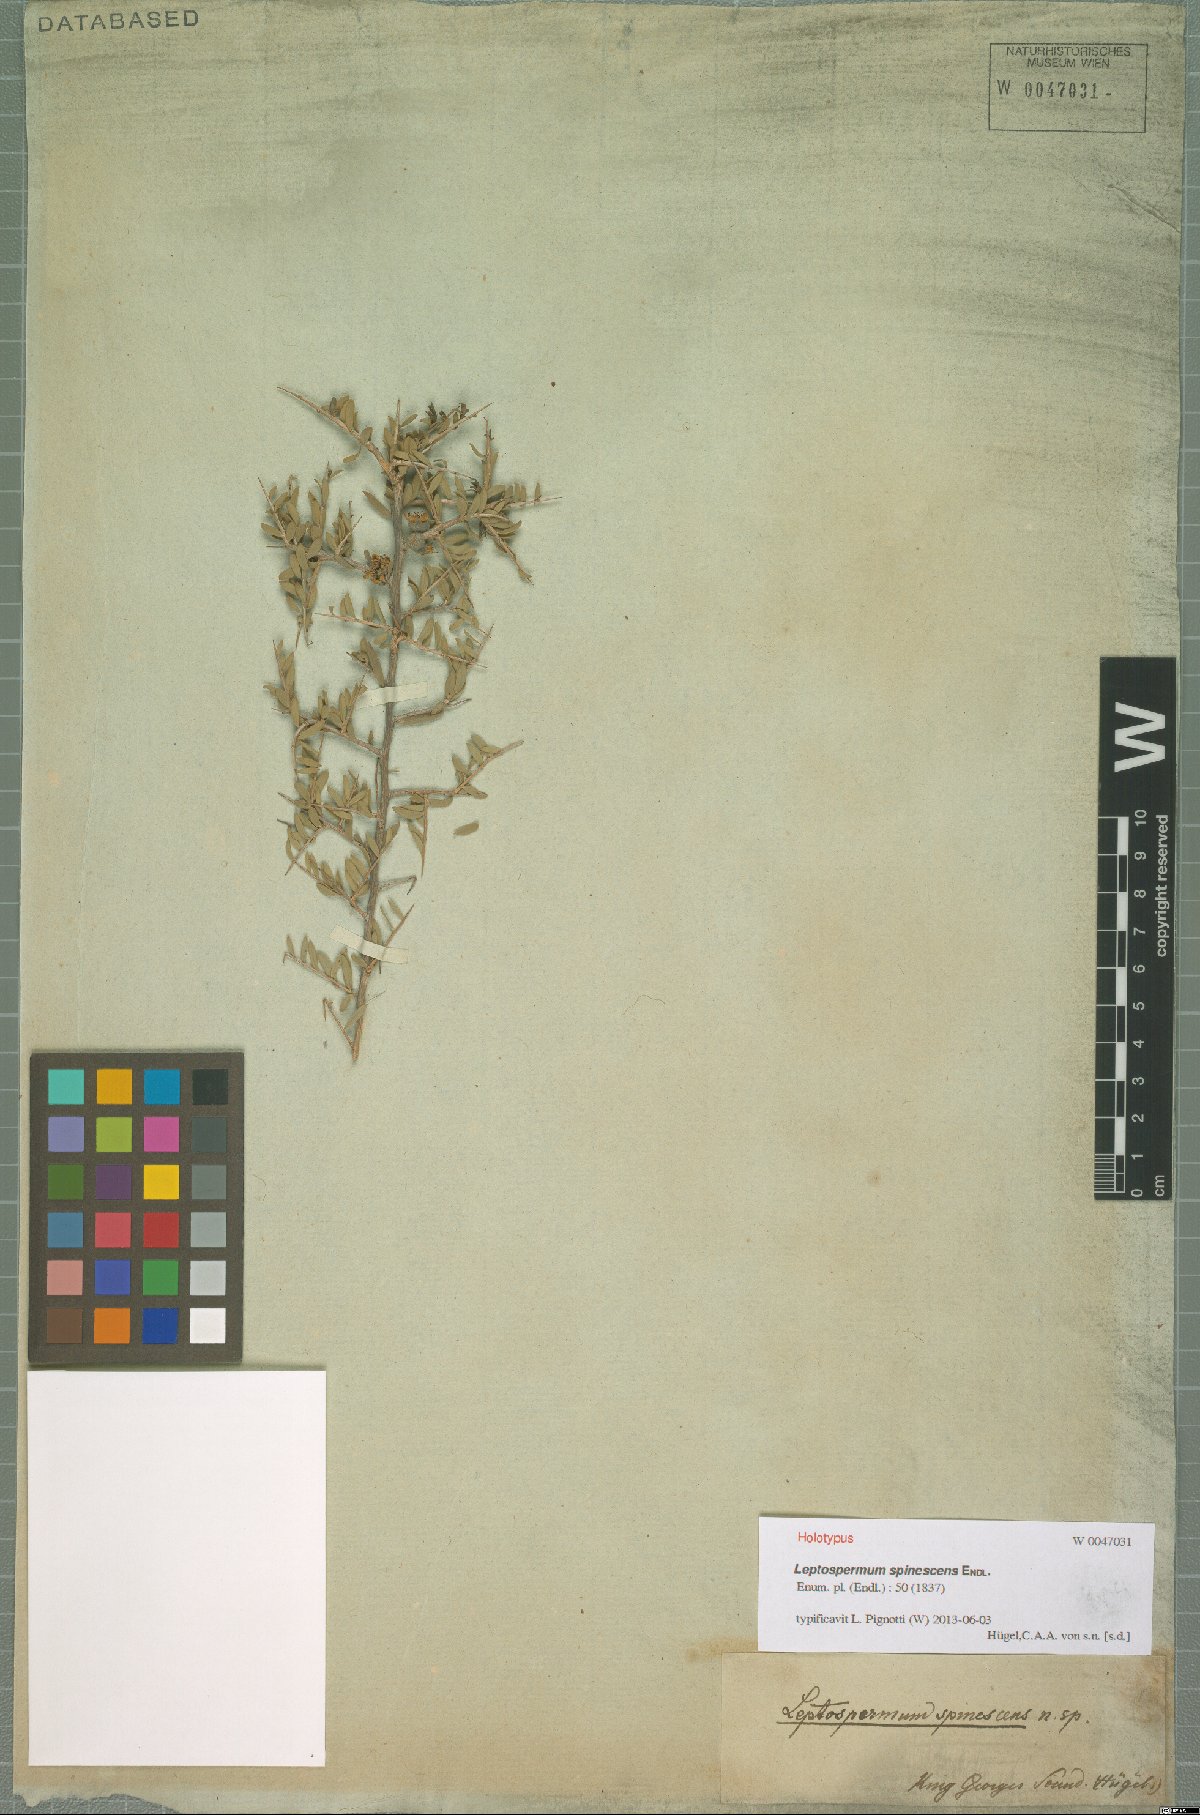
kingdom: Plantae
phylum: Tracheophyta
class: Magnoliopsida
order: Myrtales
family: Myrtaceae
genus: Leptospermum
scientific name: Leptospermum spinescens
